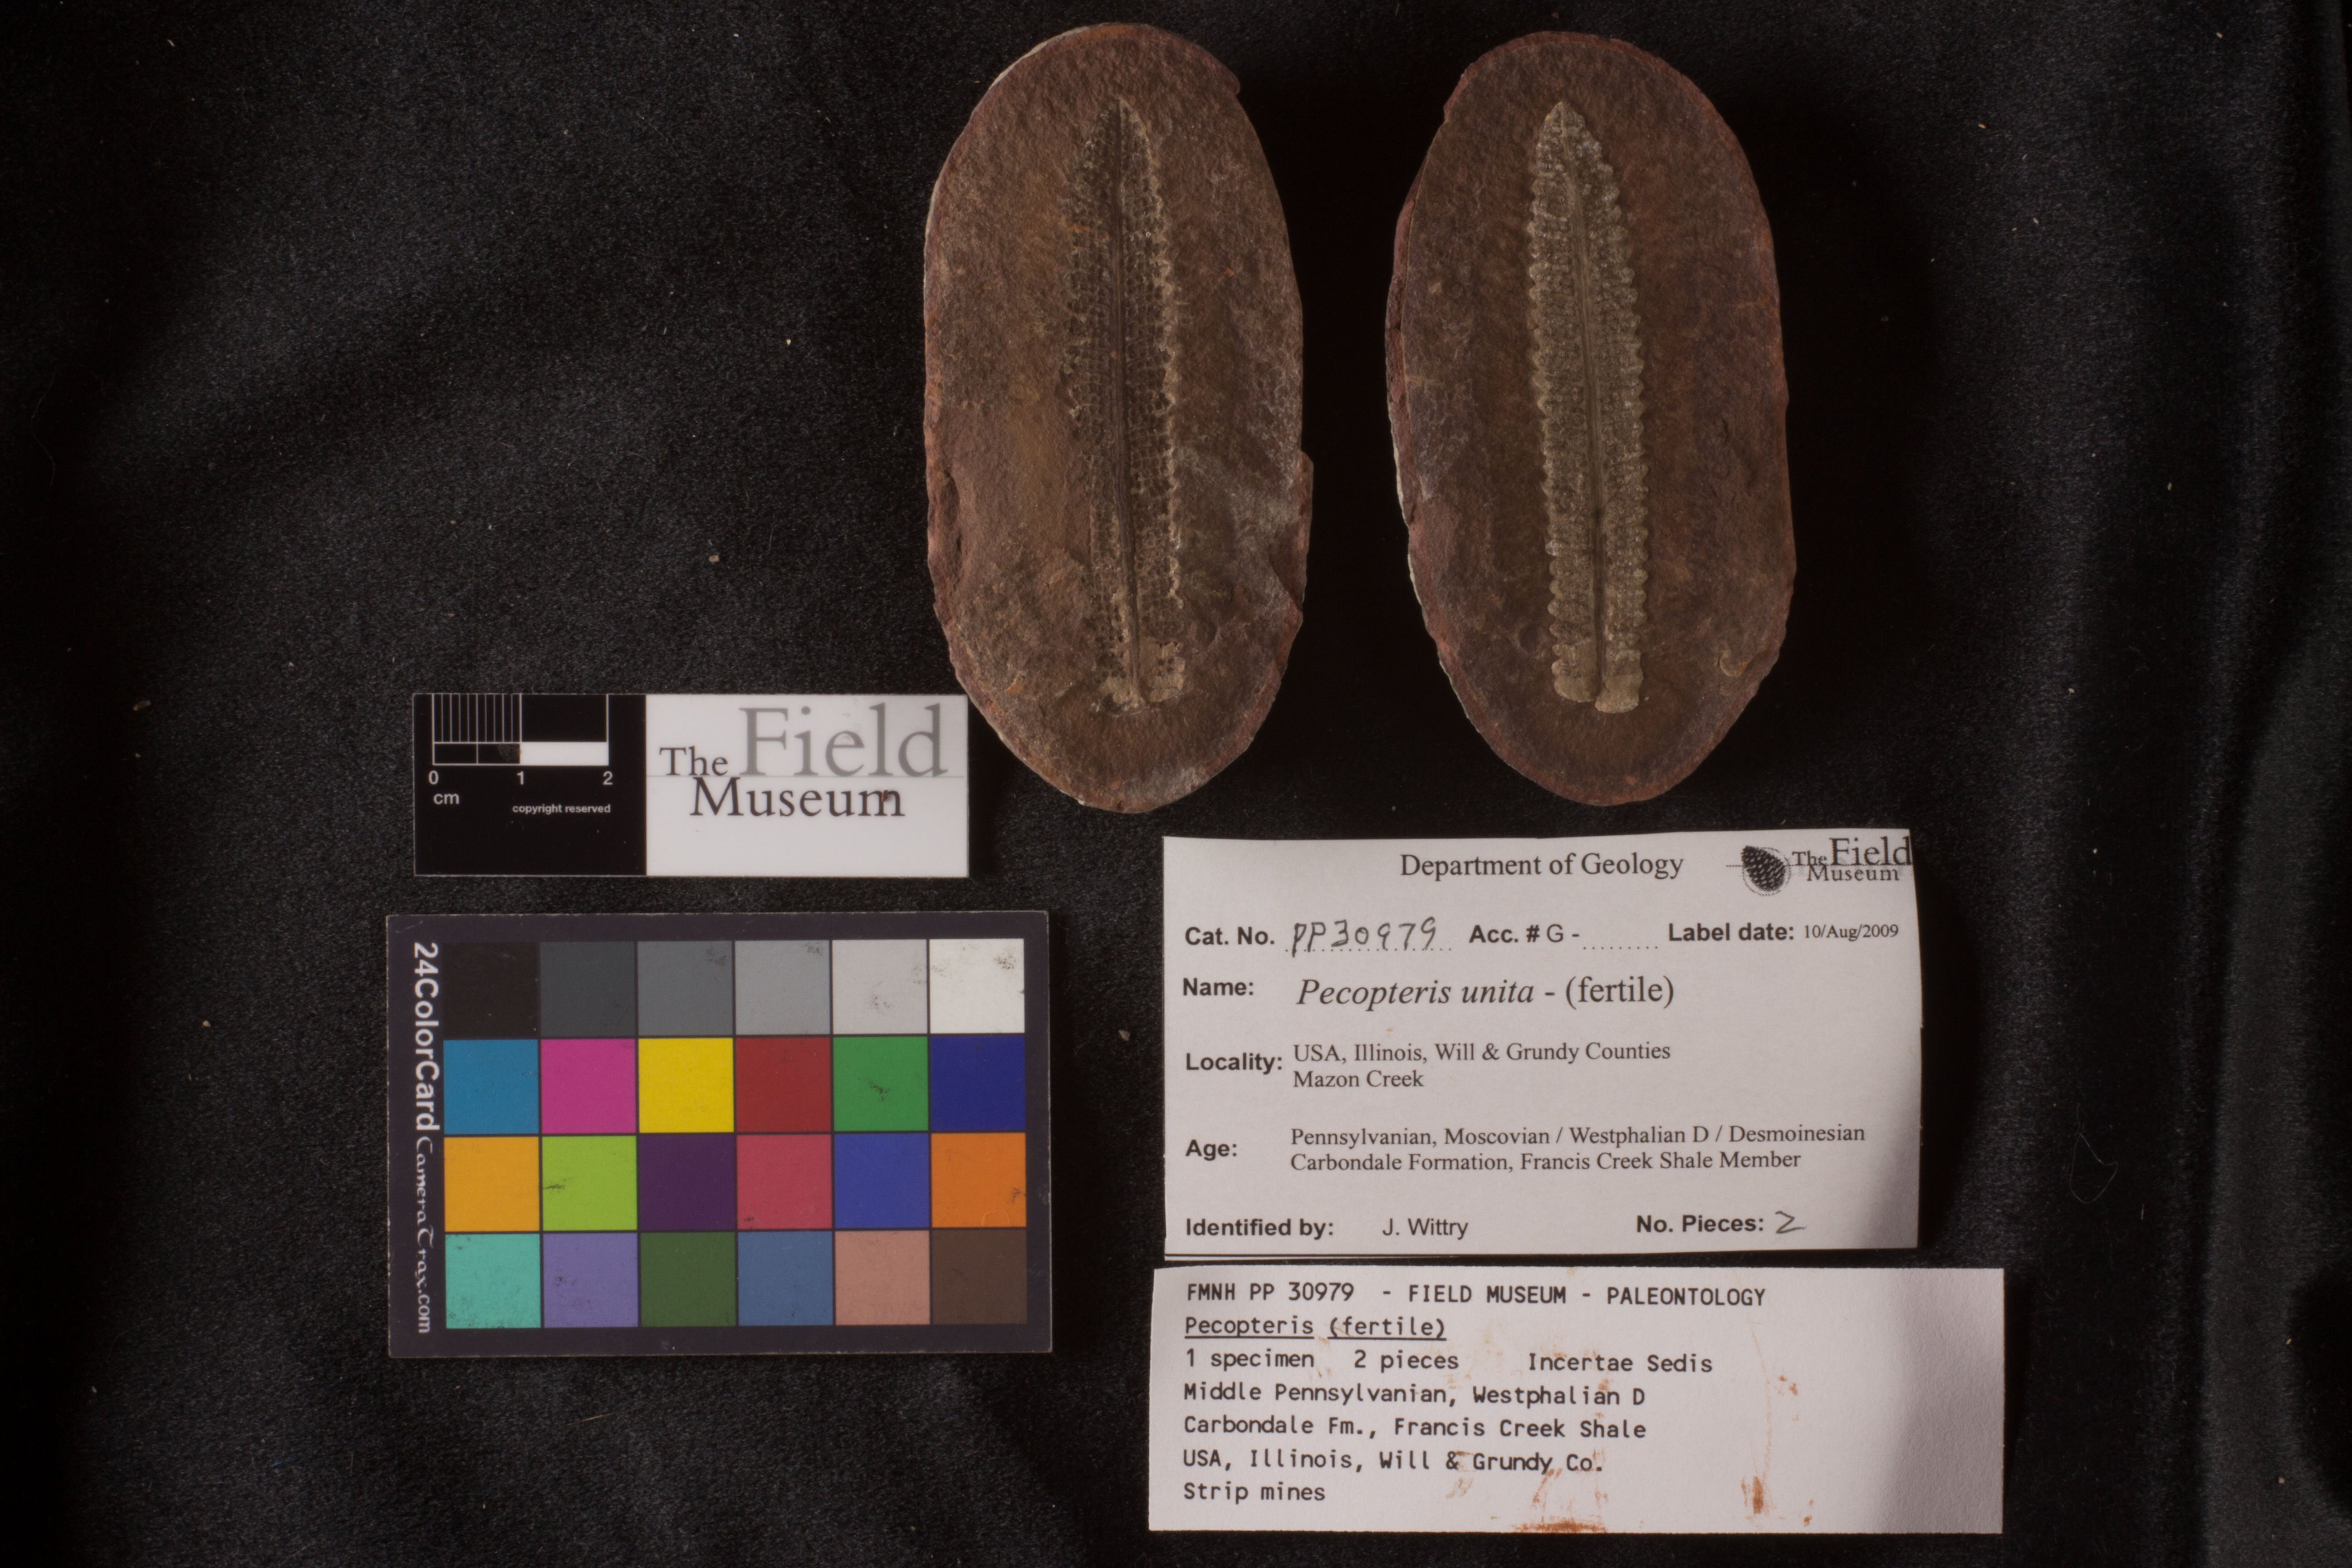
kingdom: Plantae
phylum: Tracheophyta
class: Polypodiopsida
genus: Diplazites
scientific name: Diplazites
